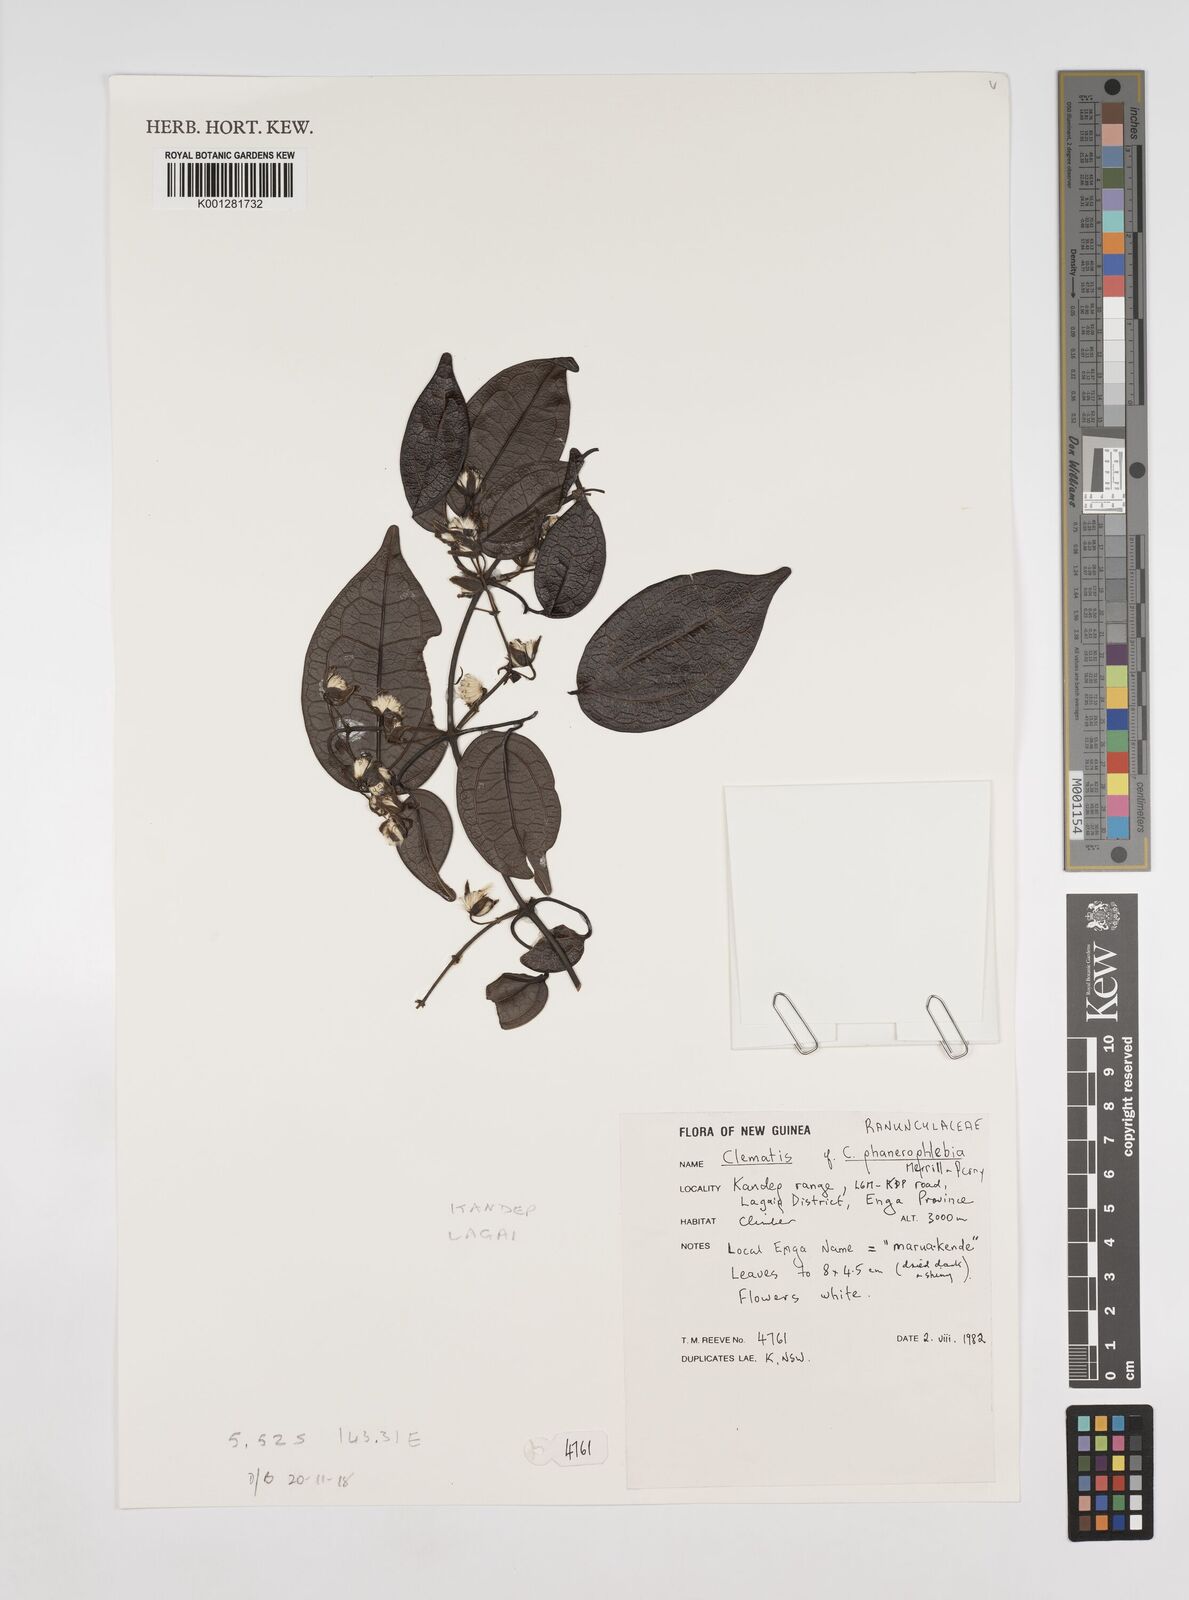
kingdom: Plantae
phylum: Tracheophyta
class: Magnoliopsida
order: Ranunculales
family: Ranunculaceae
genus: Clematis
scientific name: Clematis phanerophlebia
